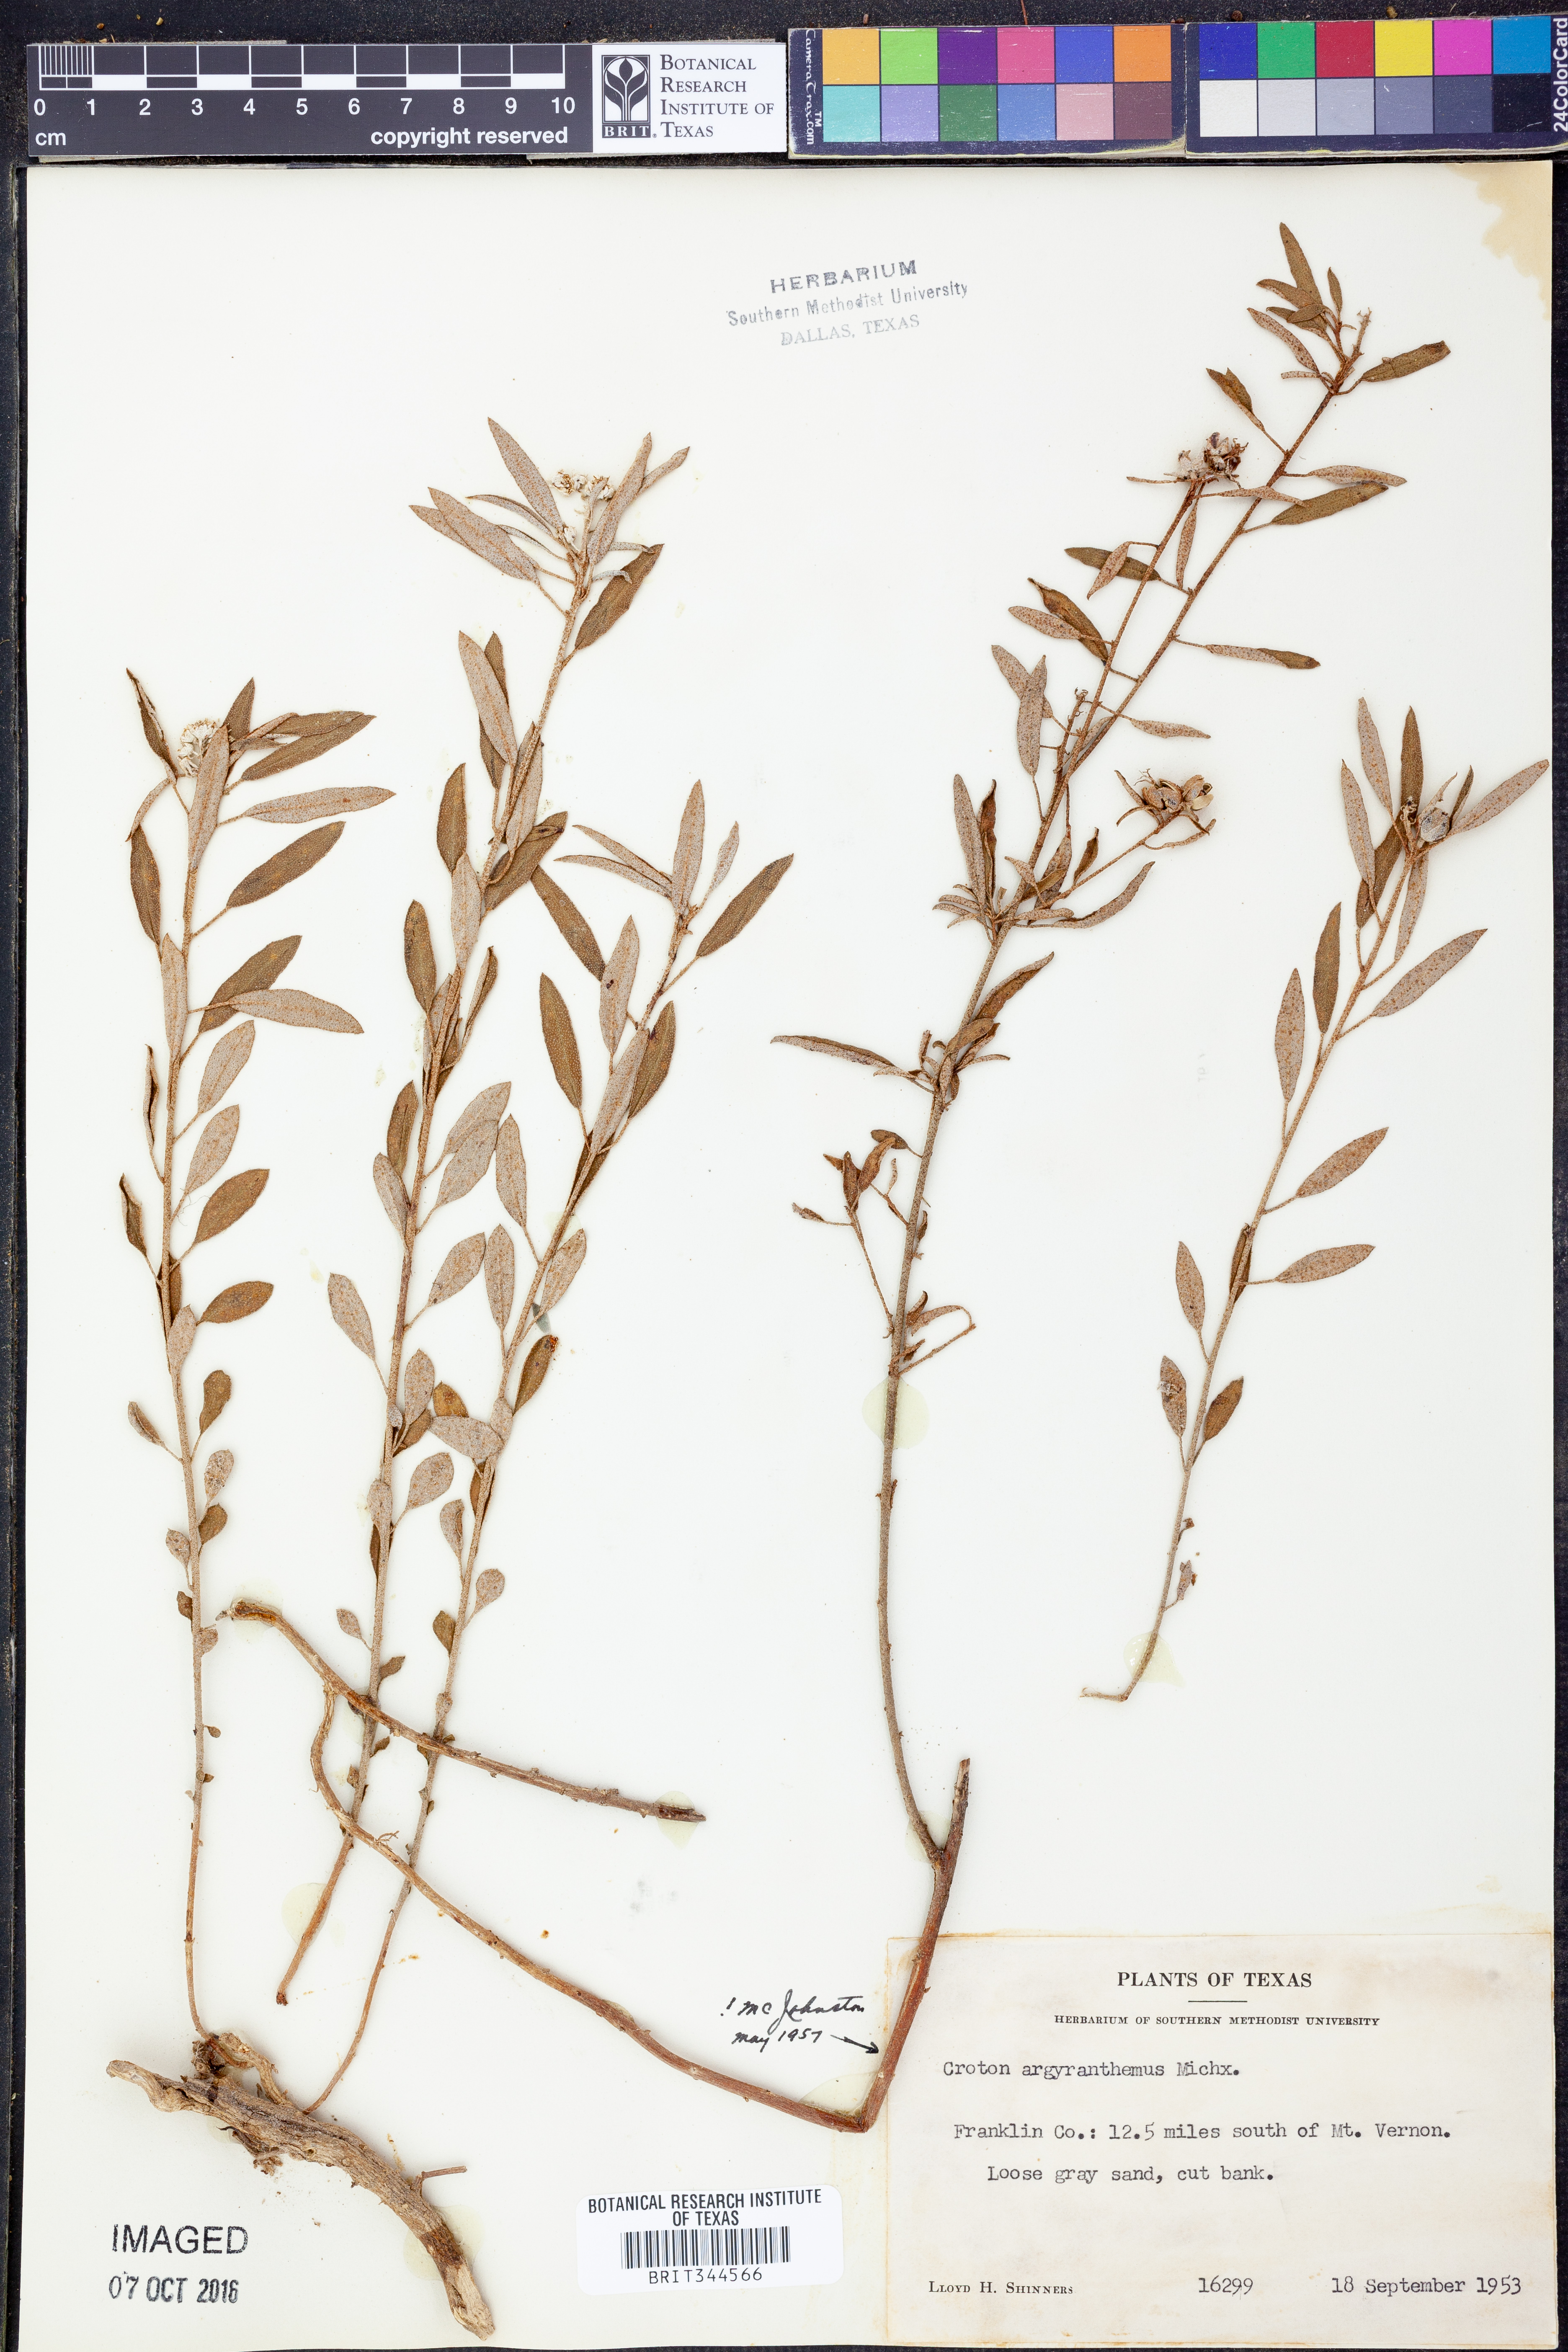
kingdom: Plantae
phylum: Tracheophyta
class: Magnoliopsida
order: Malpighiales
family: Euphorbiaceae
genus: Croton
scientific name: Croton argyranthemus
